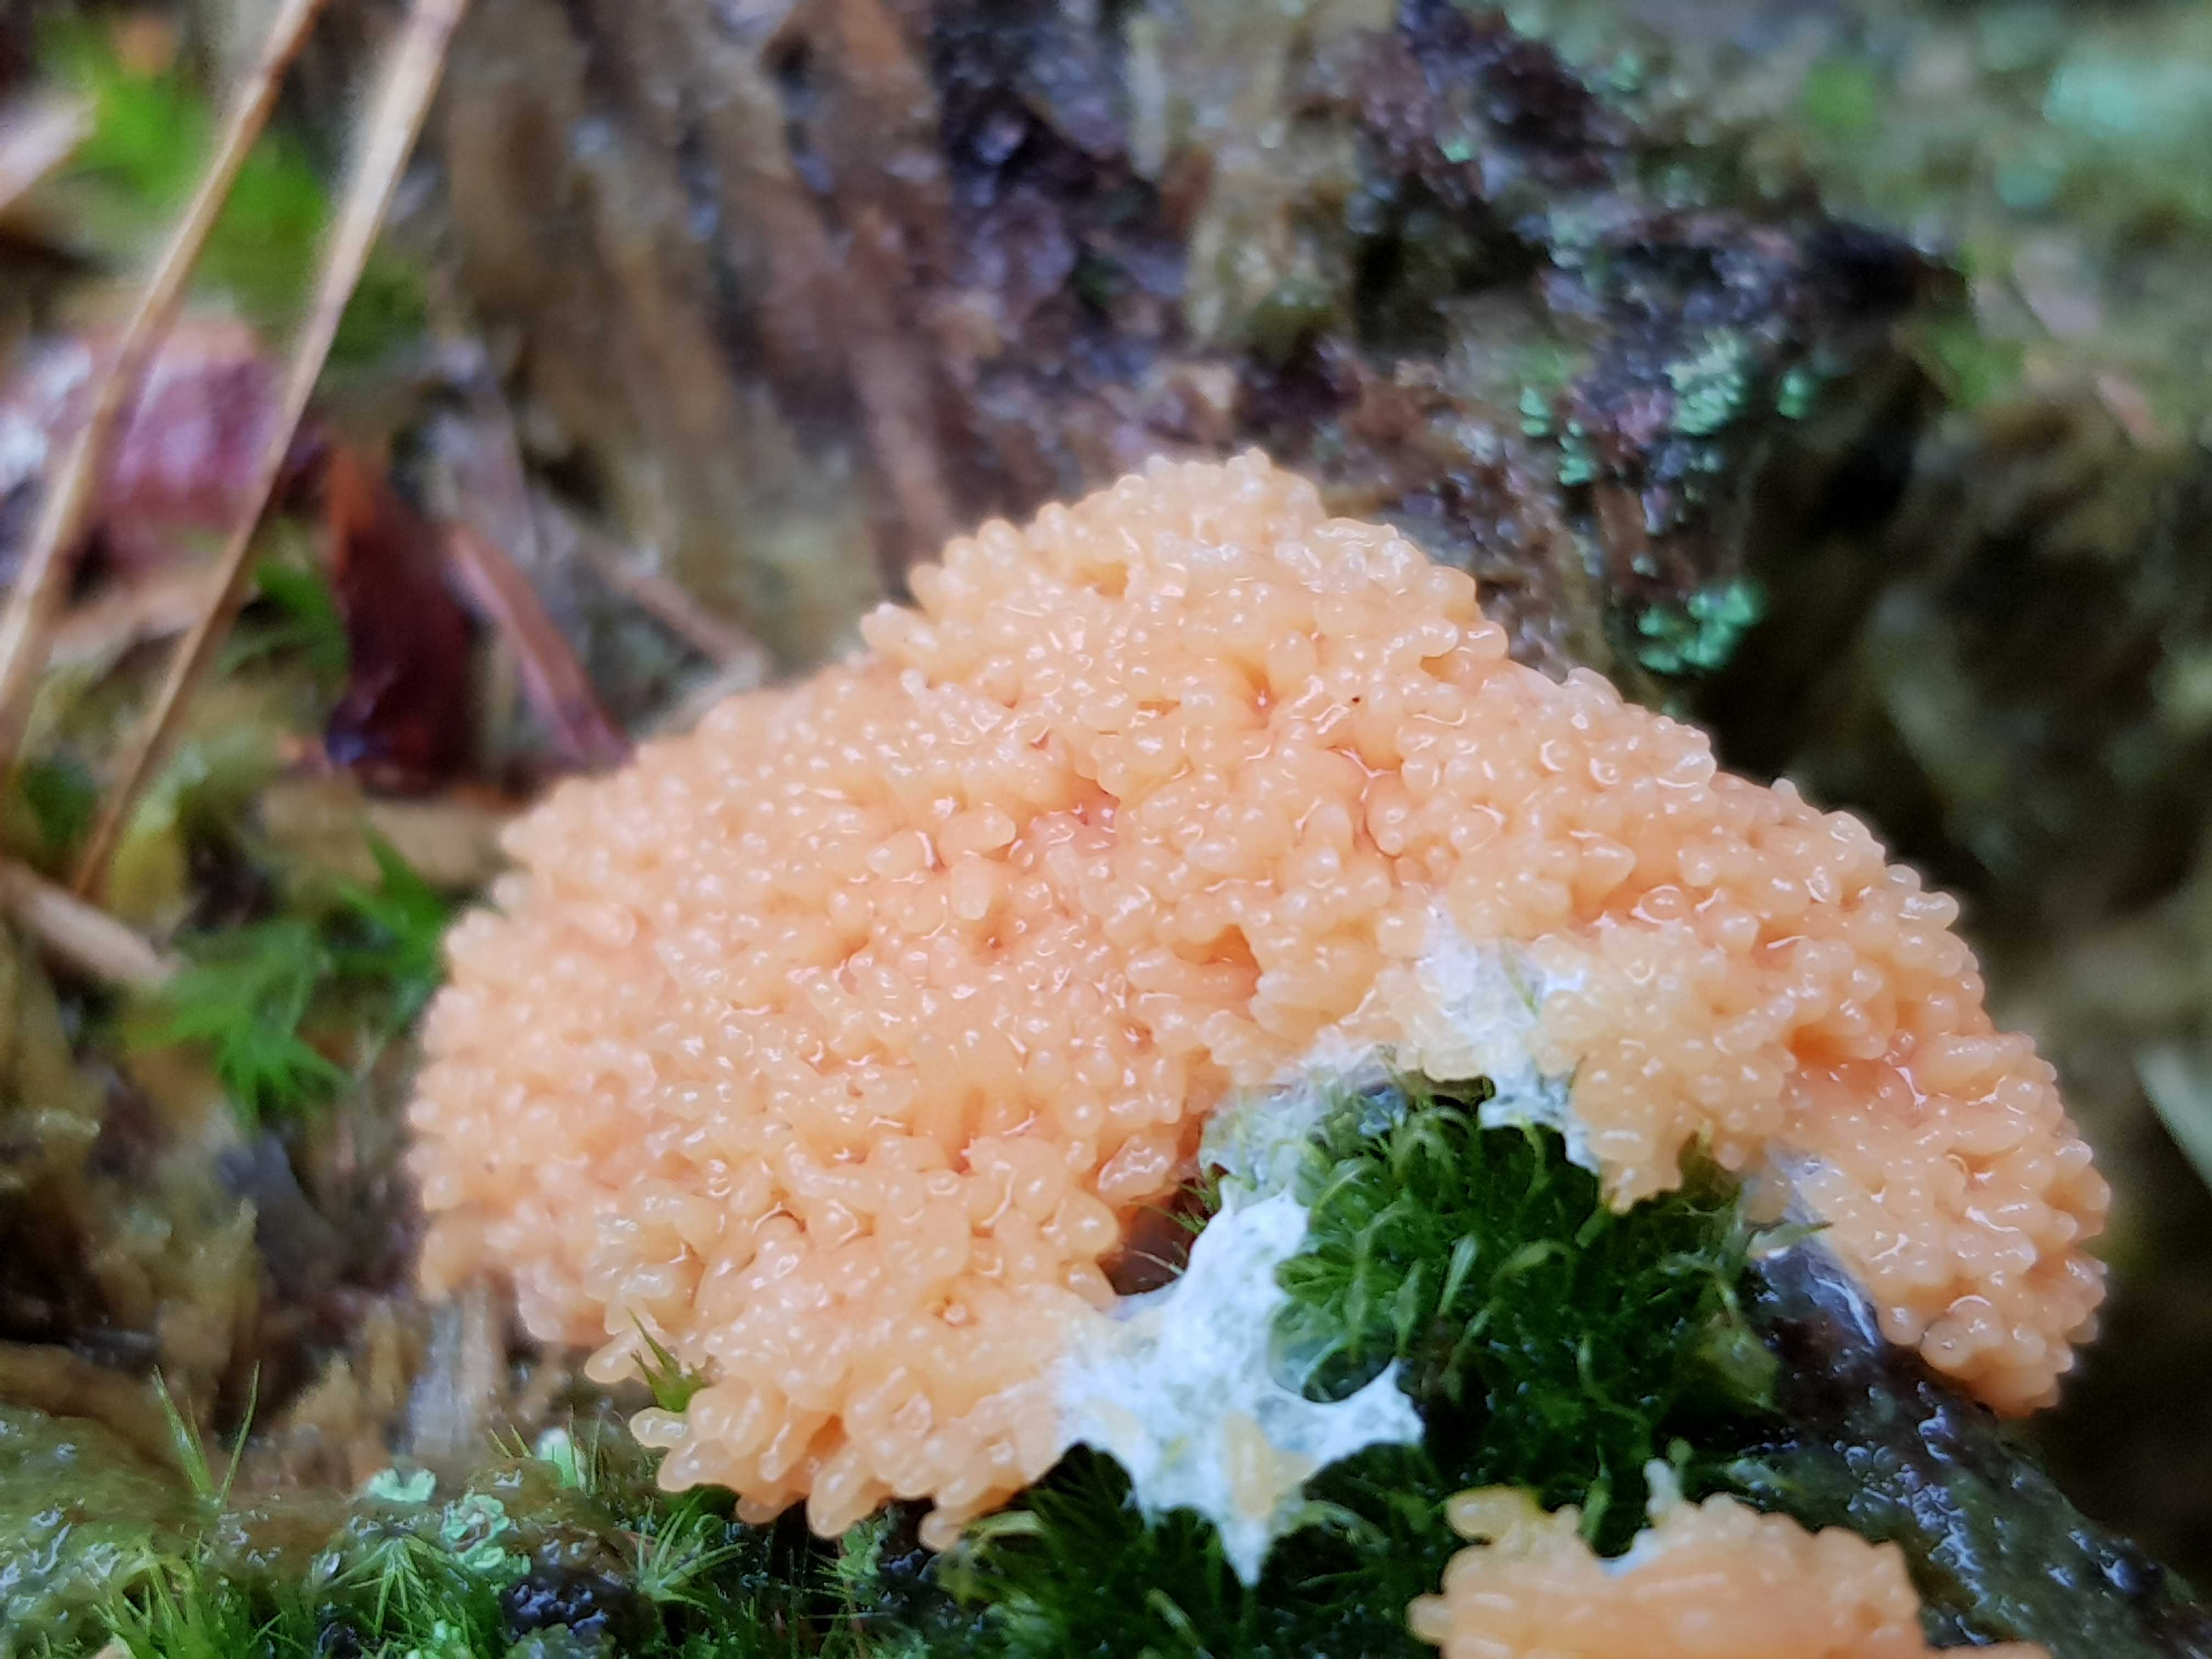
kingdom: Protozoa
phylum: Mycetozoa
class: Myxomycetes
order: Cribrariales
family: Tubiferaceae
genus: Tubifera
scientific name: Tubifera ferruginosa
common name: kanel-støvrør
